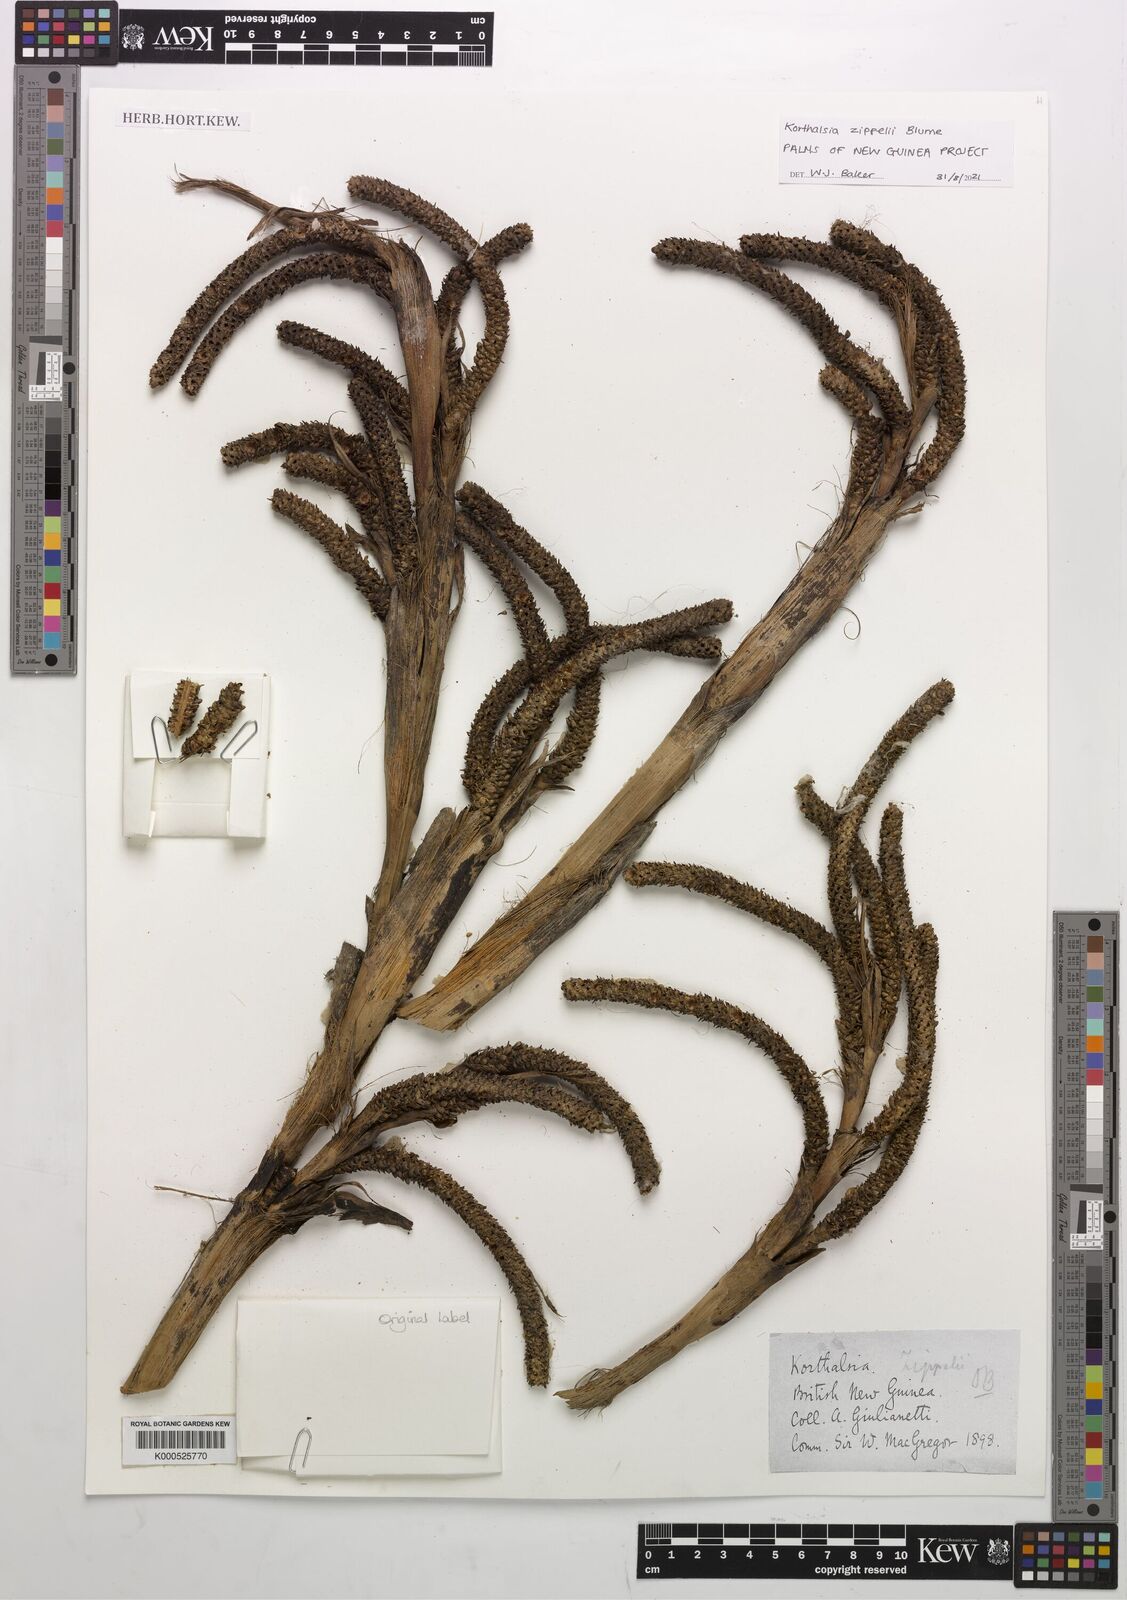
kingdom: Plantae
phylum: Tracheophyta
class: Liliopsida
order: Arecales
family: Arecaceae
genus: Korthalsia
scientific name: Korthalsia zippelii
